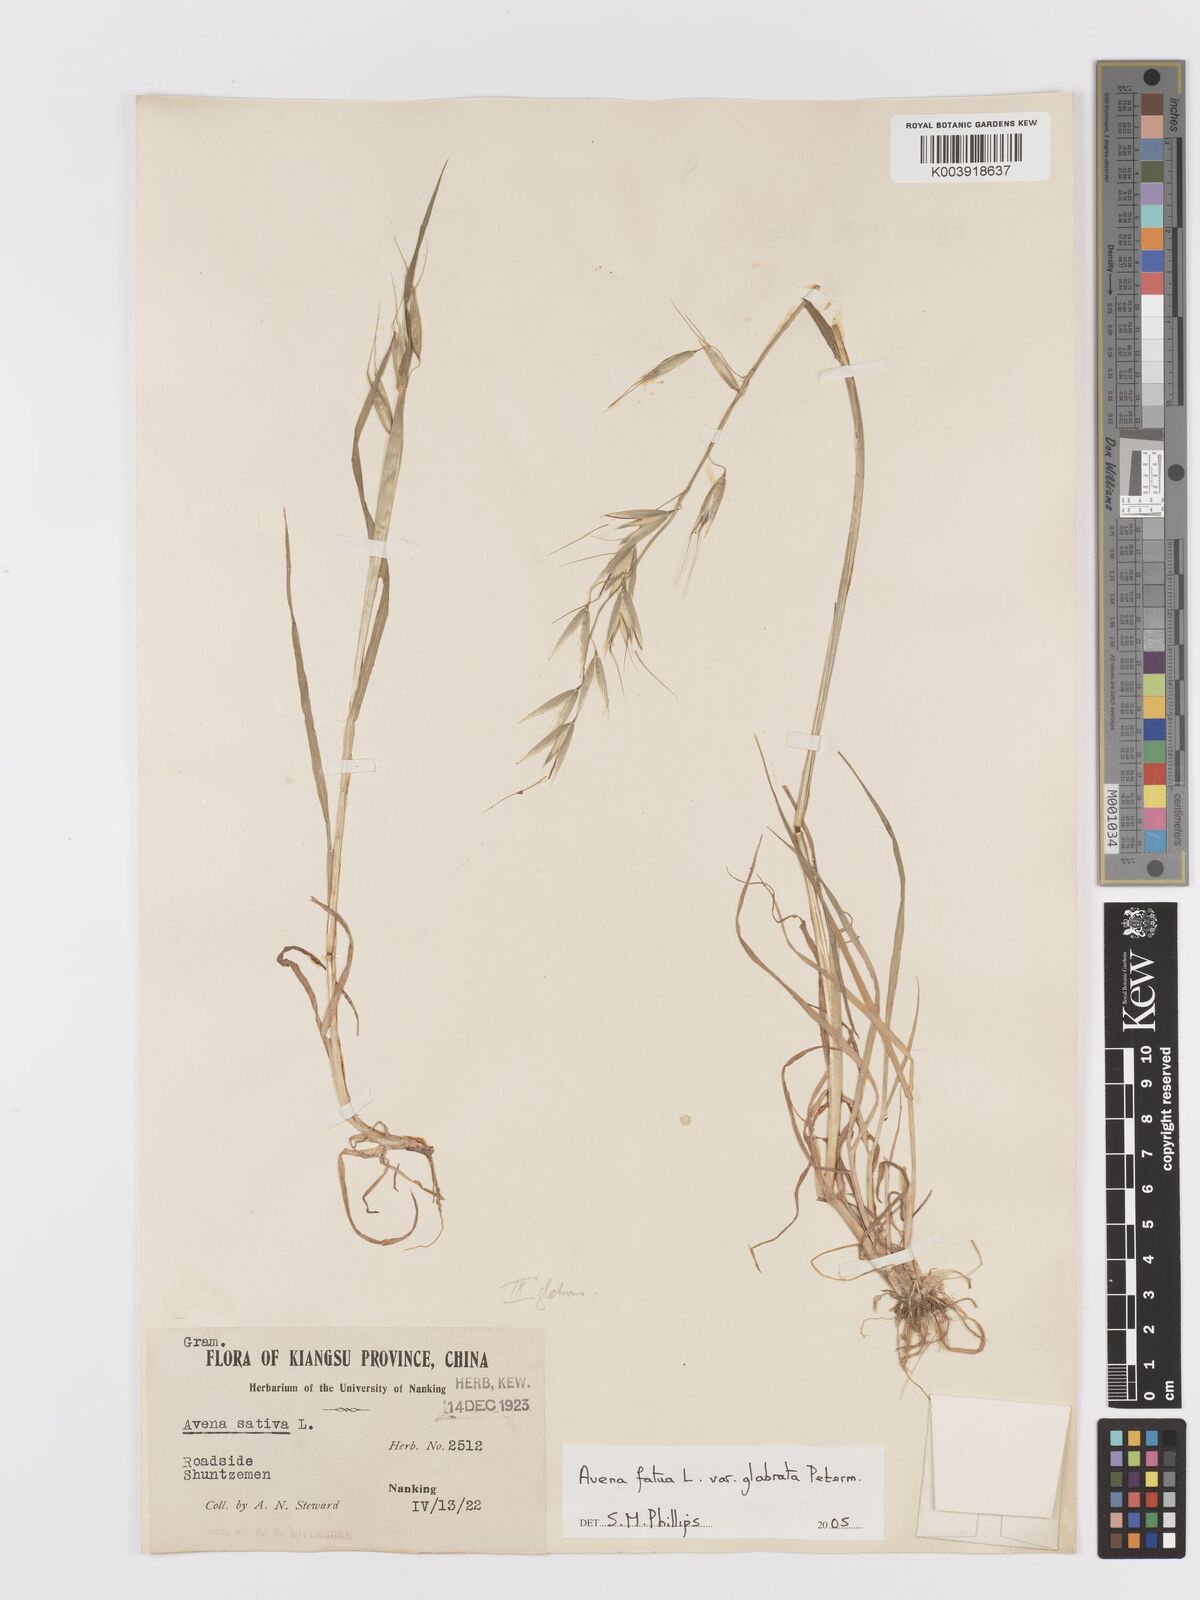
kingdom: Plantae
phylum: Tracheophyta
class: Liliopsida
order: Poales
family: Poaceae
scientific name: Poaceae
